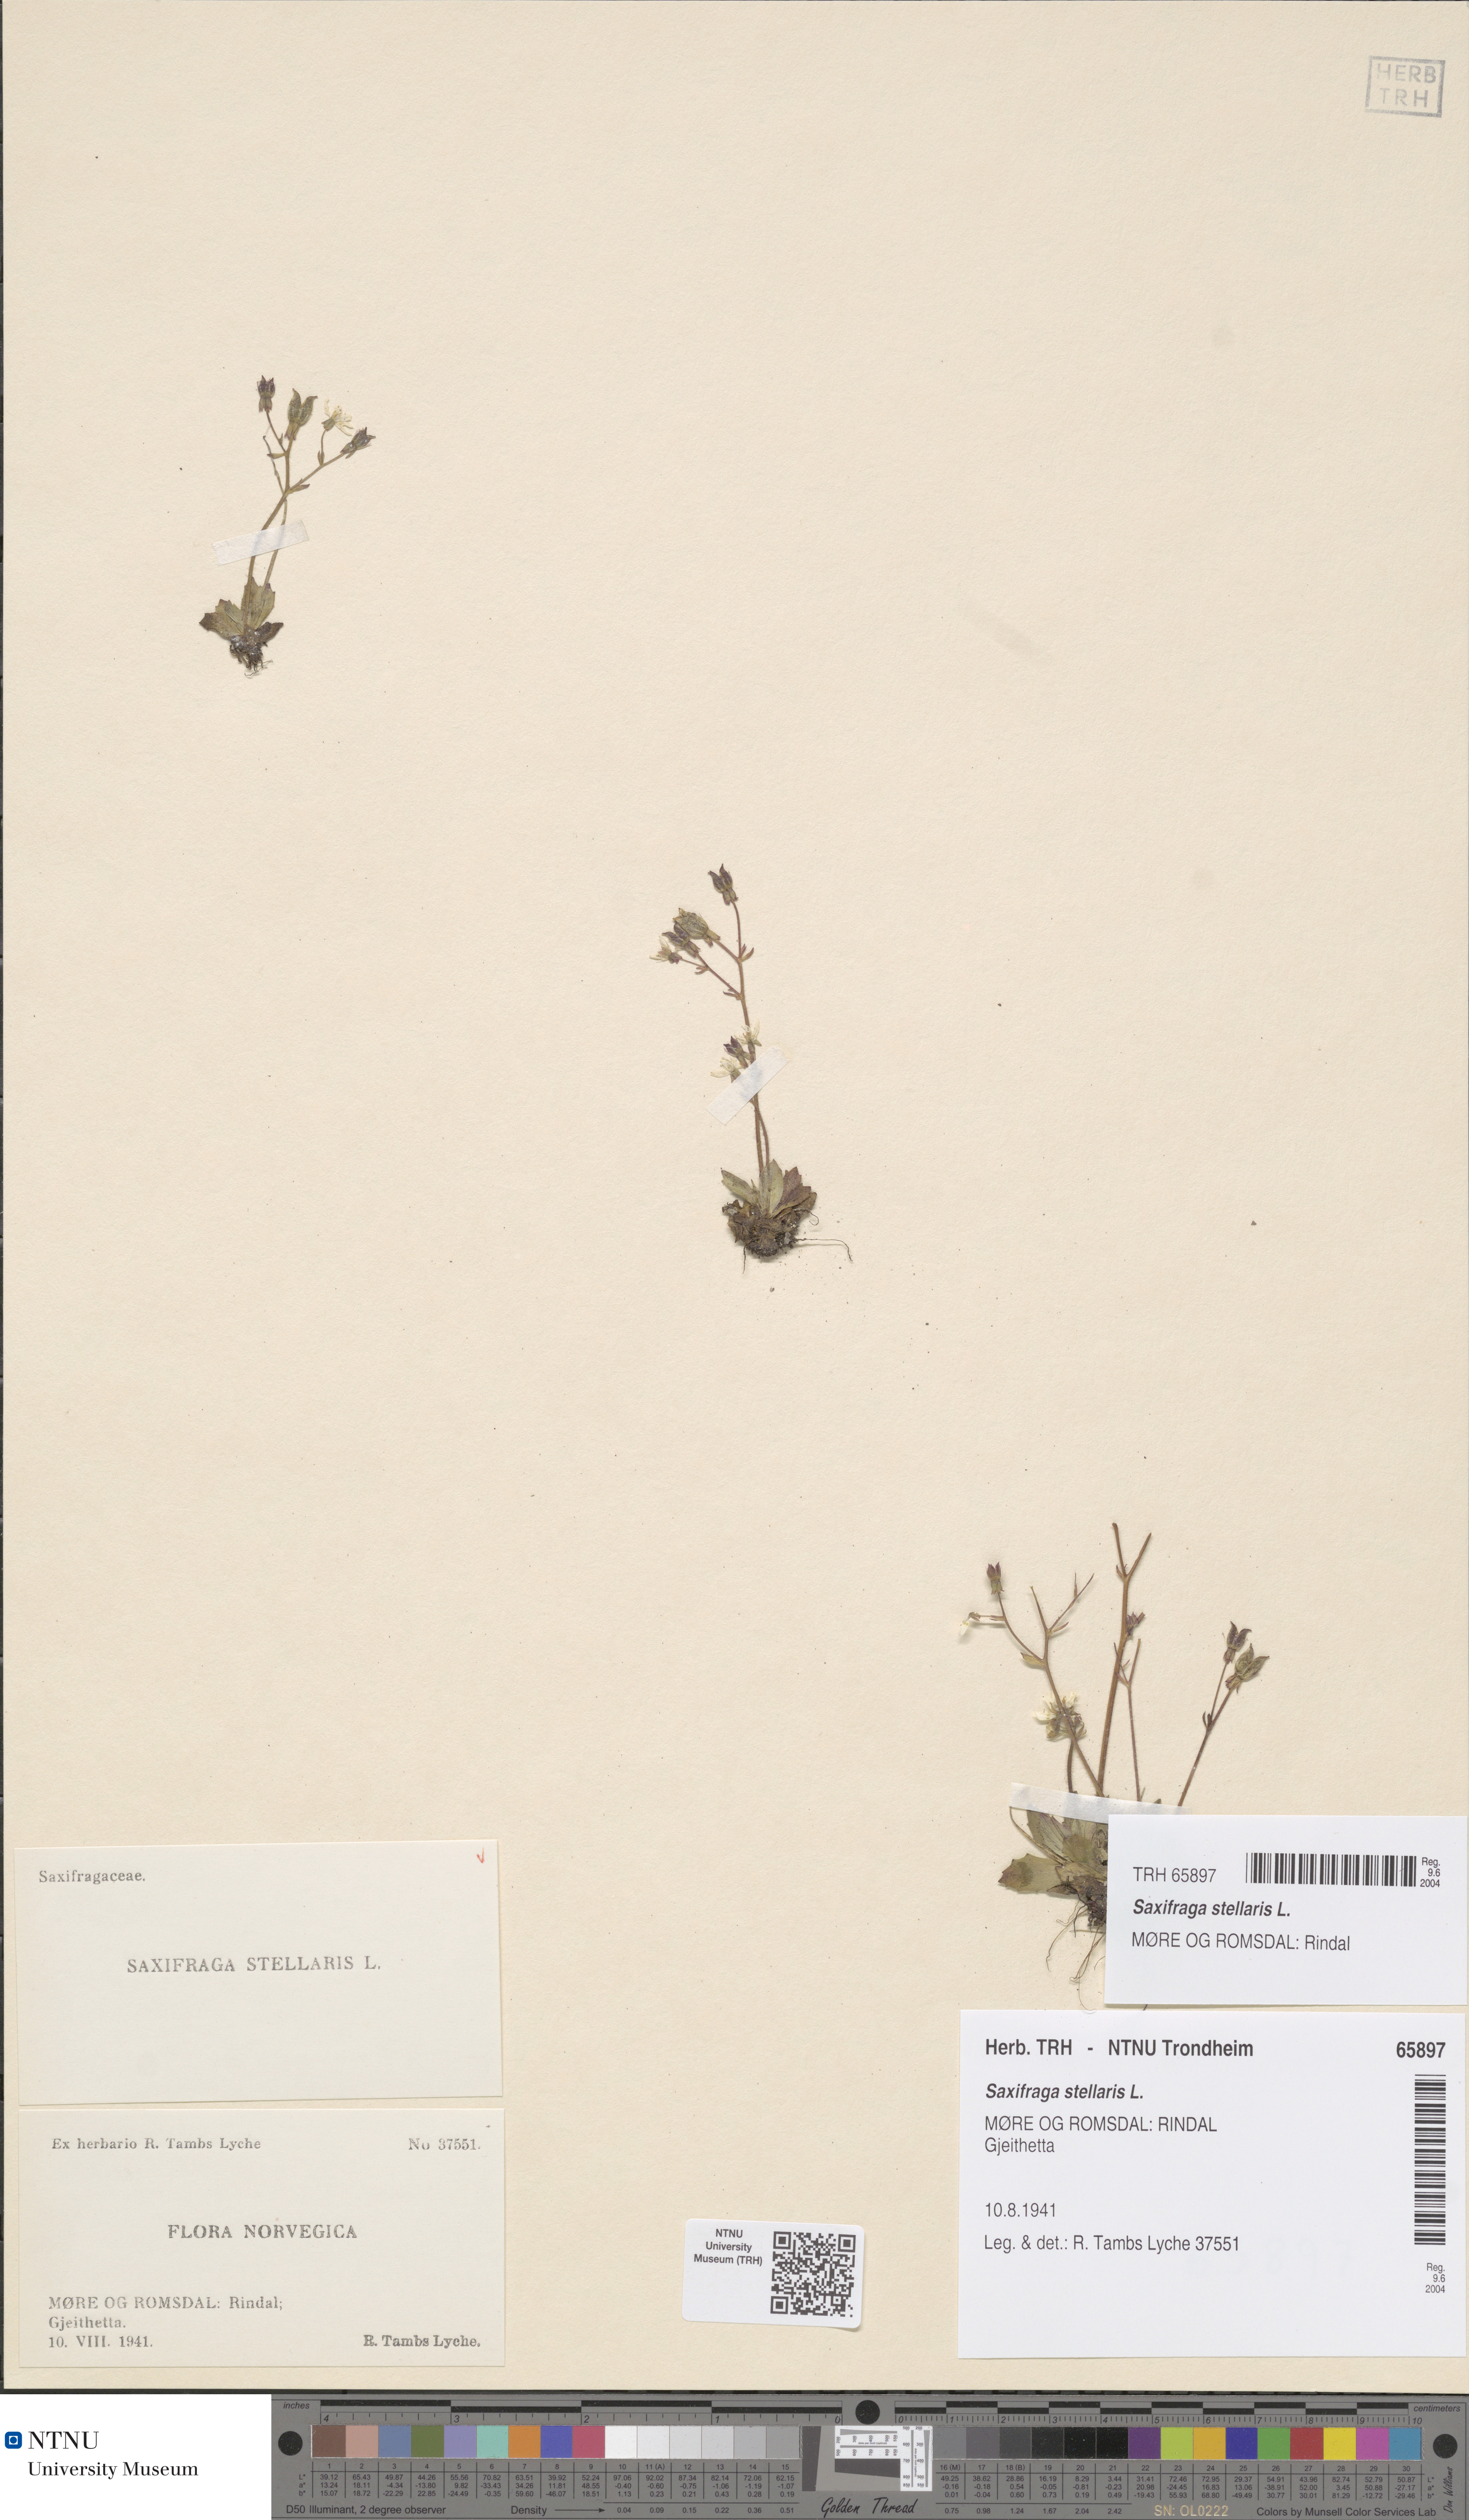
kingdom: Plantae
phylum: Tracheophyta
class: Magnoliopsida
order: Saxifragales
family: Saxifragaceae
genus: Micranthes
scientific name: Micranthes stellaris
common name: Starry saxifrage
